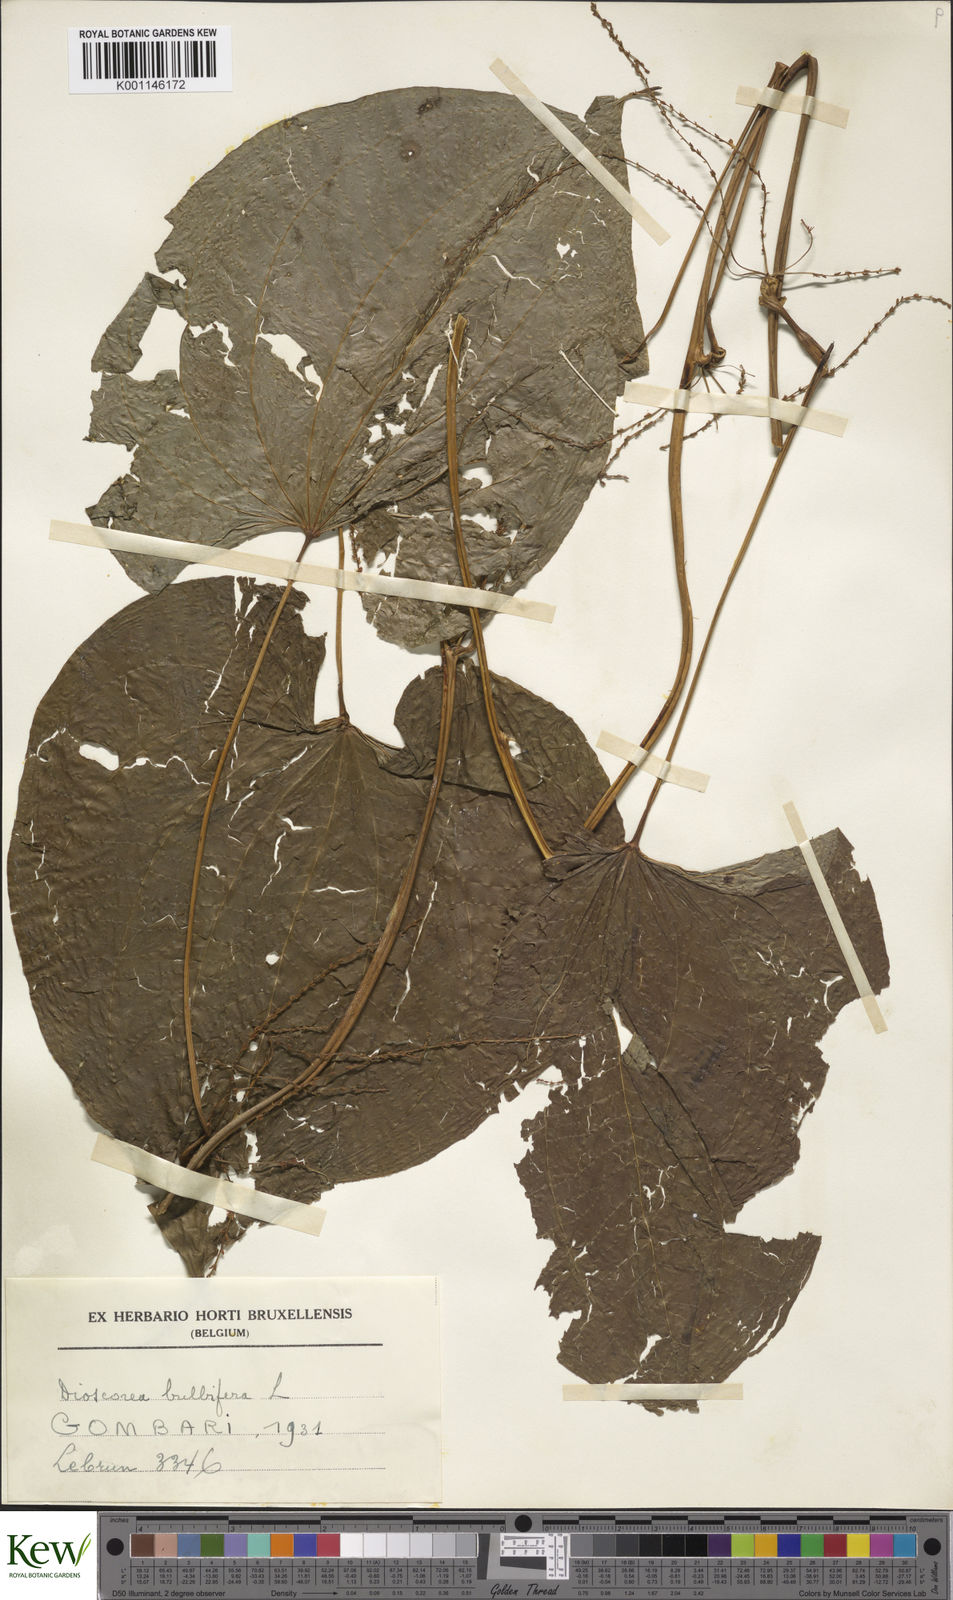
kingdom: Plantae
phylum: Tracheophyta
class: Liliopsida
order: Dioscoreales
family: Dioscoreaceae
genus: Dioscorea
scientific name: Dioscorea bulbifera
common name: Air yam
